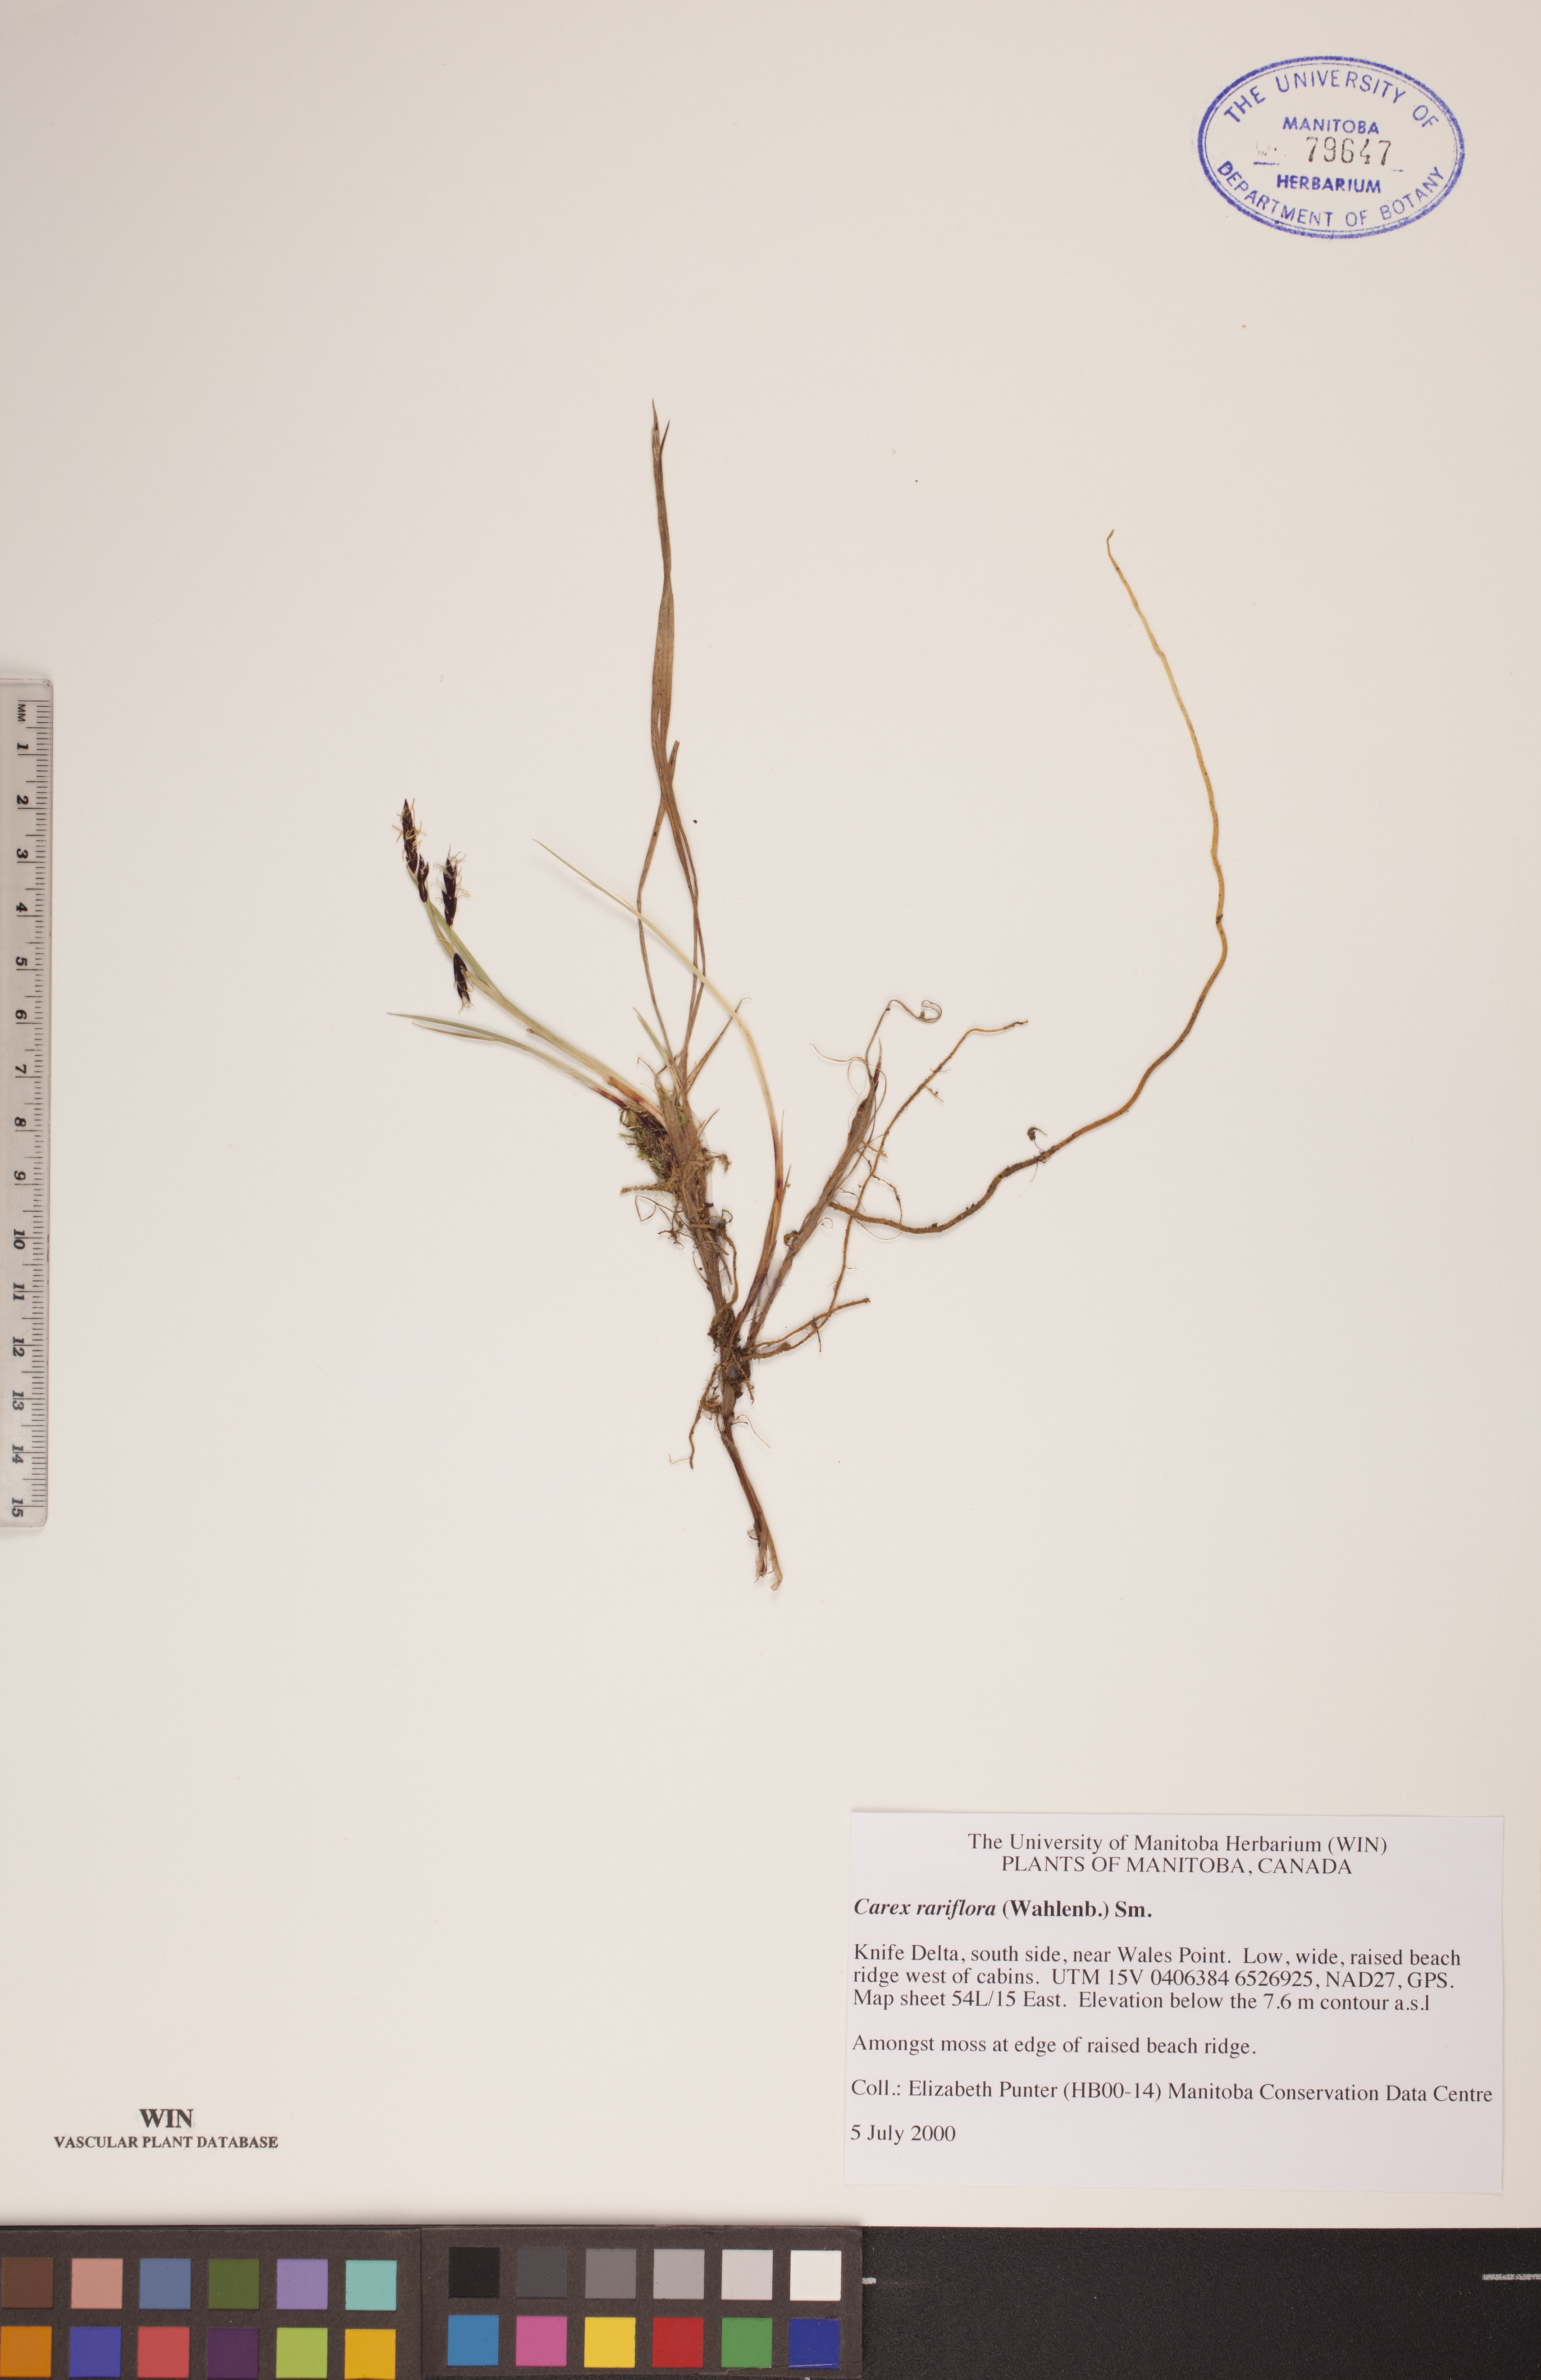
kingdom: Plantae
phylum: Tracheophyta
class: Liliopsida
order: Poales
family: Cyperaceae
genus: Carex
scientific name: Carex rariflora
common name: Loose-flowered alpine sedge
